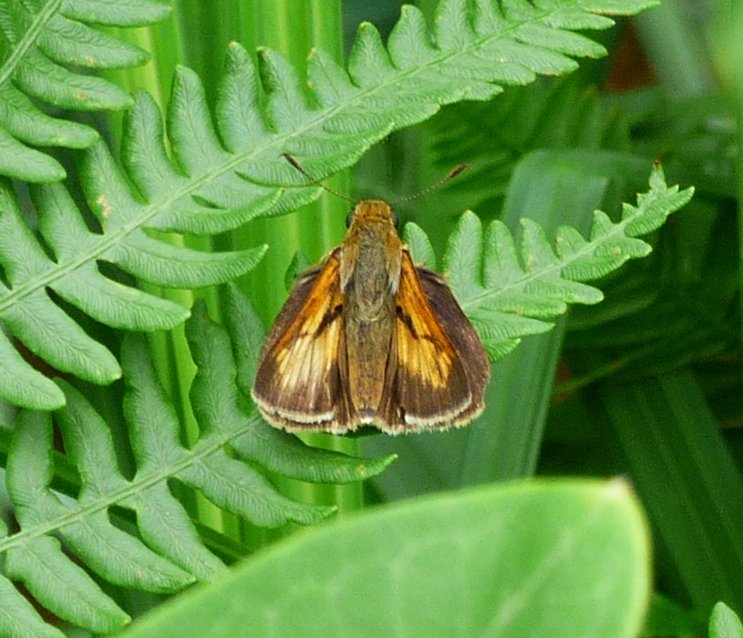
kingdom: Animalia
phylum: Arthropoda
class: Insecta
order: Lepidoptera
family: Hesperiidae
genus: Euphyes
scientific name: Euphyes dion
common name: Dion Skipper
